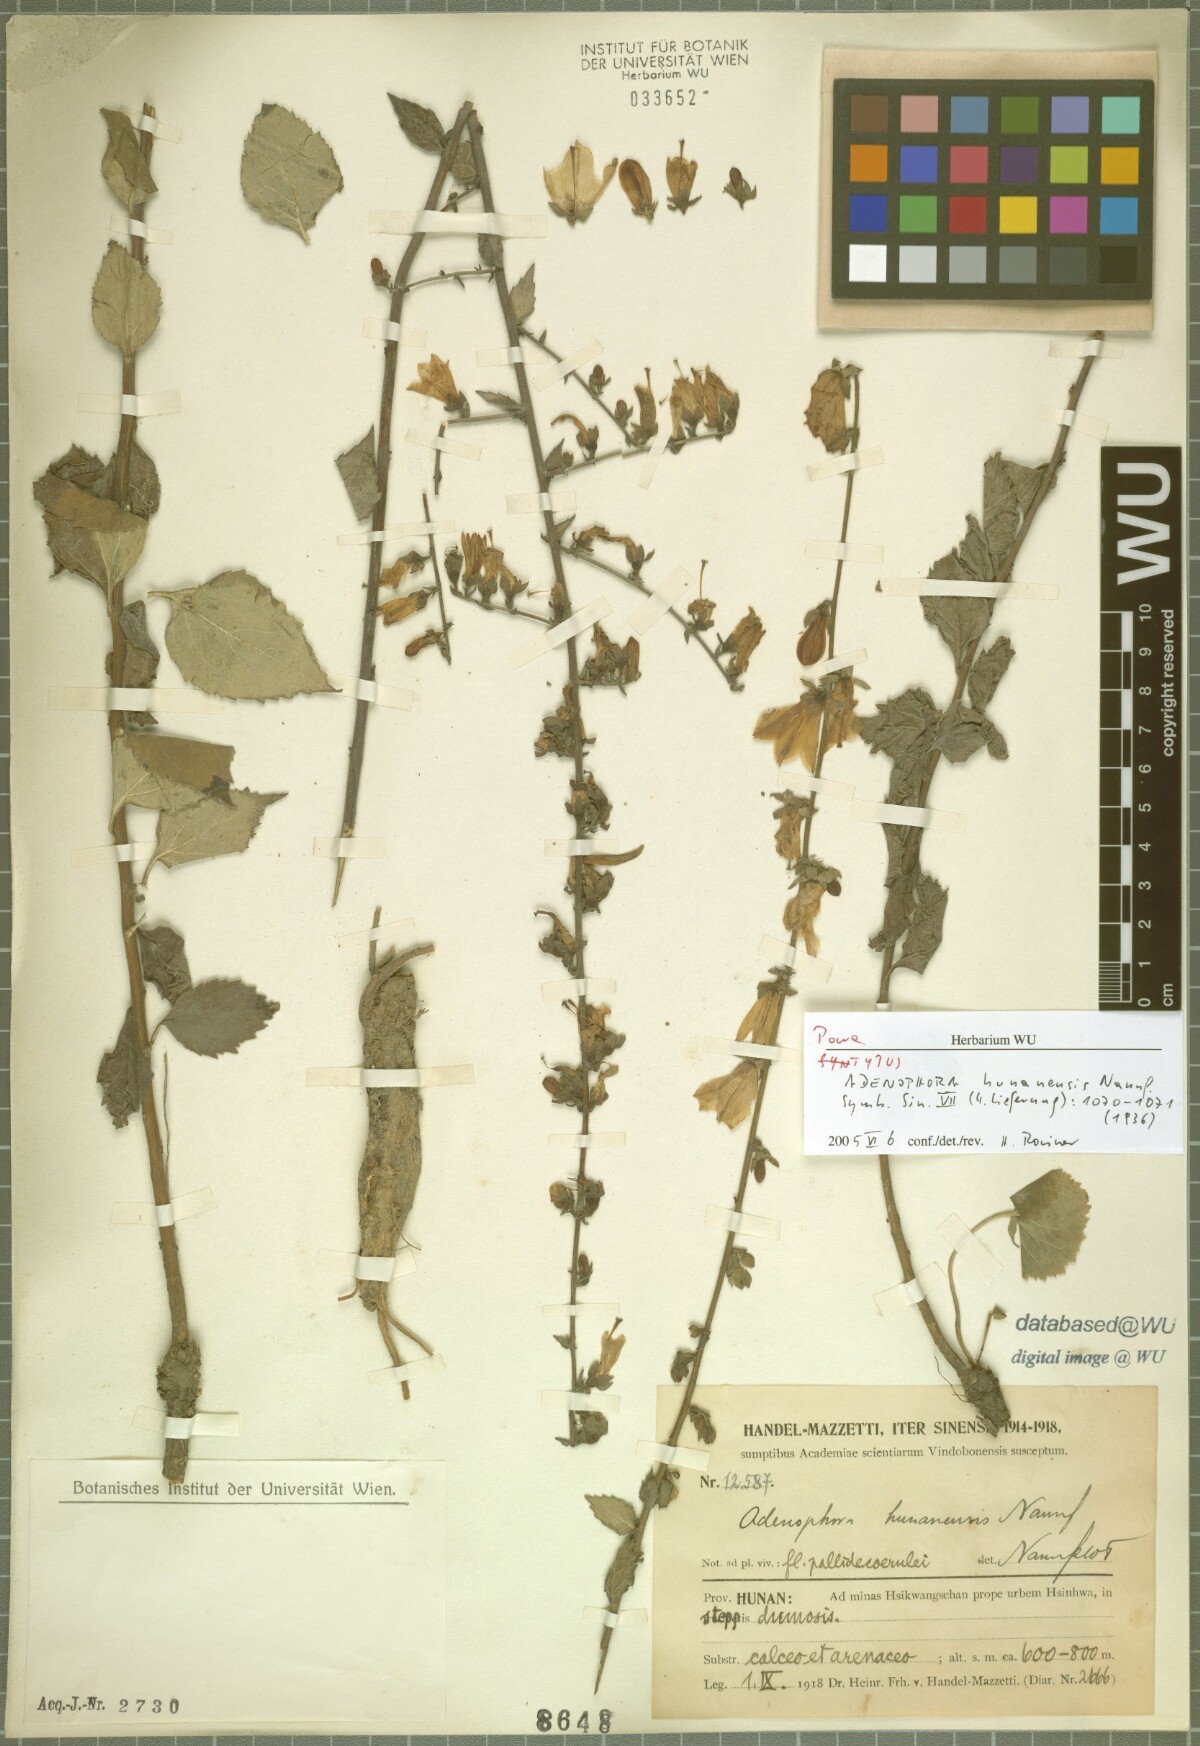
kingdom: Plantae
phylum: Tracheophyta
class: Magnoliopsida
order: Asterales
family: Campanulaceae
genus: Adenophora
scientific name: Adenophora petiolata
